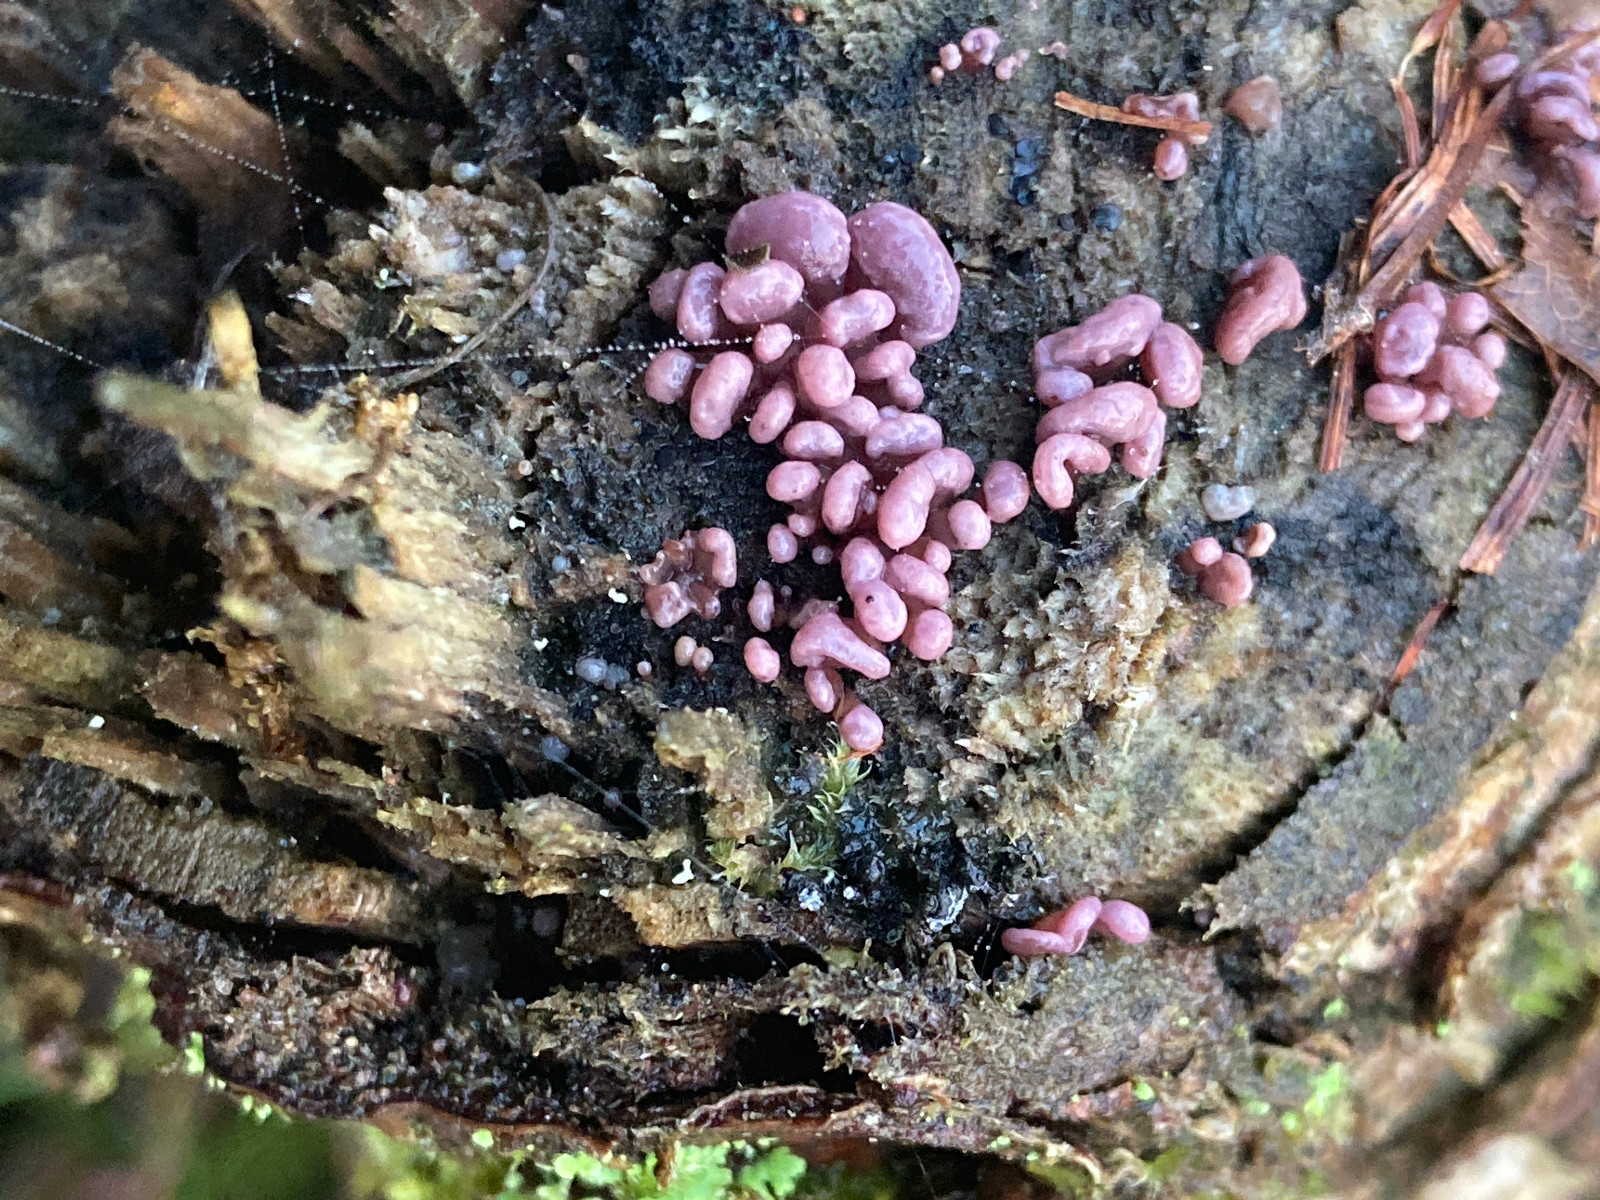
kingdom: Fungi
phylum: Ascomycota
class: Leotiomycetes
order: Helotiales
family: Gelatinodiscaceae
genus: Ascocoryne
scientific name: Ascocoryne sarcoides
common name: rødlilla sejskive
